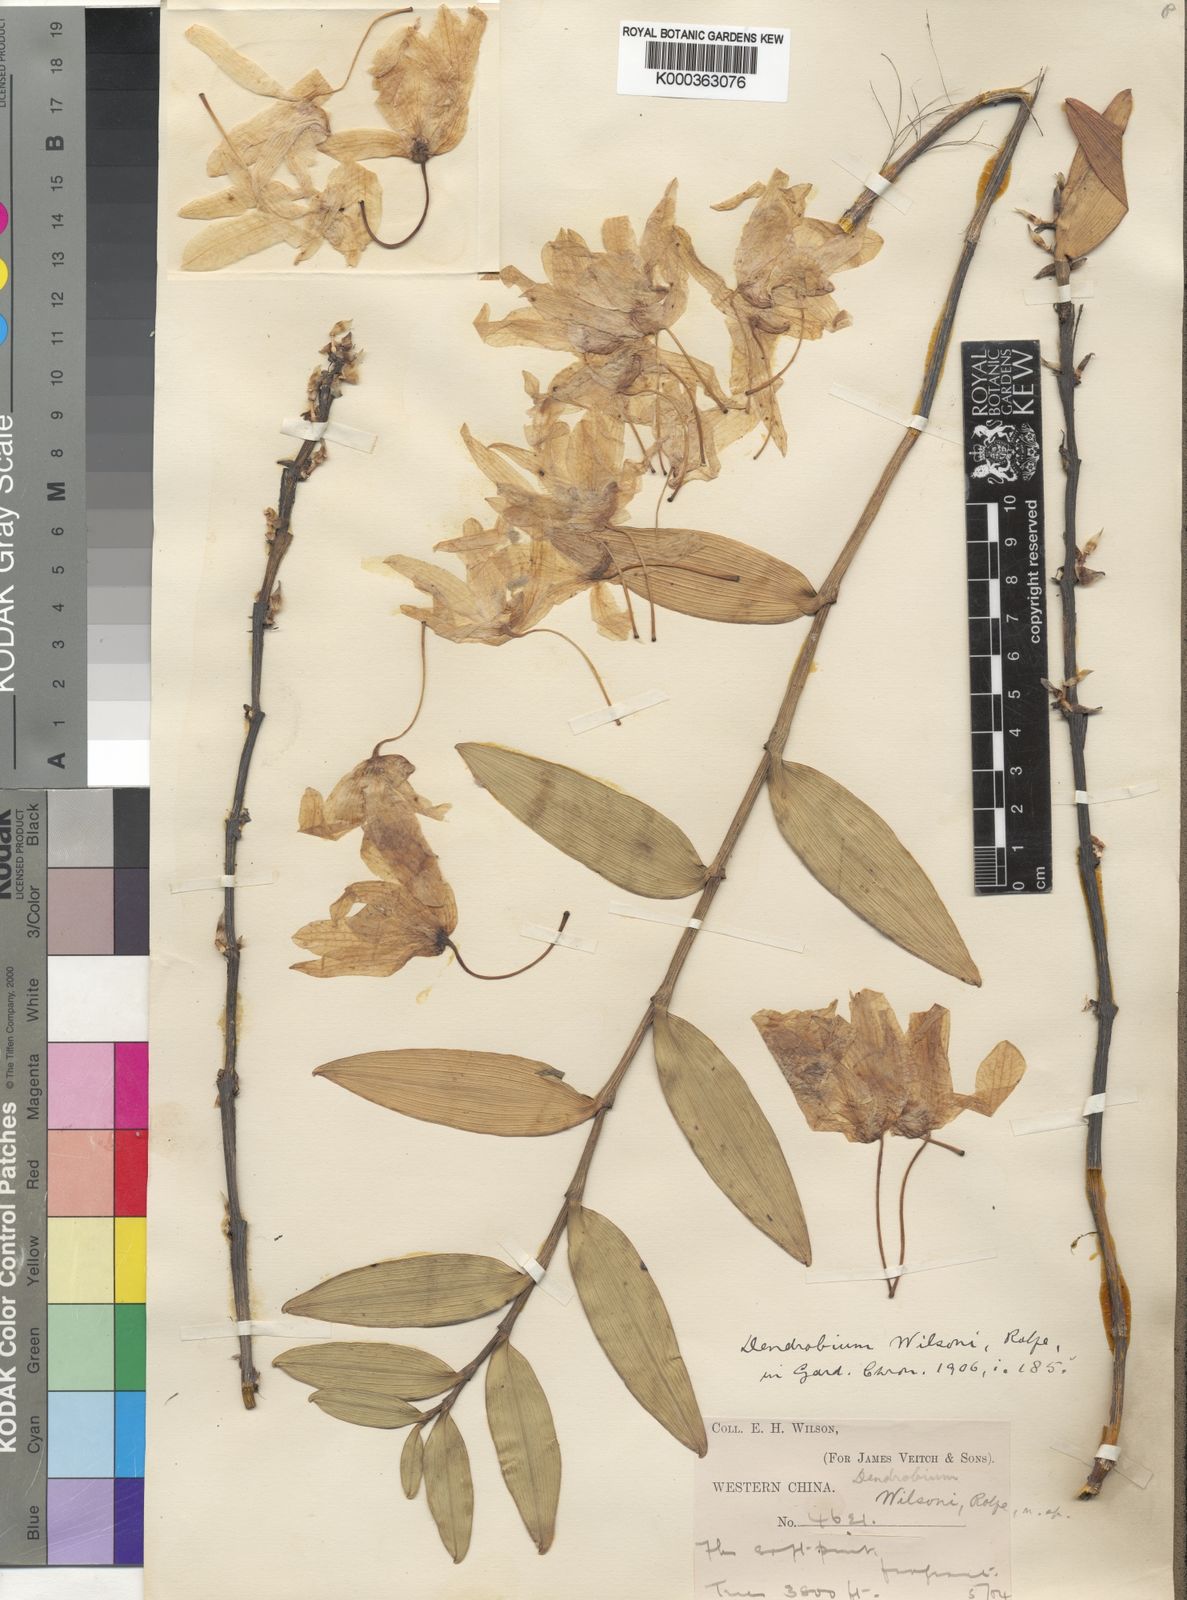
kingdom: Plantae
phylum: Tracheophyta
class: Liliopsida
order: Asparagales
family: Orchidaceae
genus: Dendrobium
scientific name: Dendrobium wilsonii
